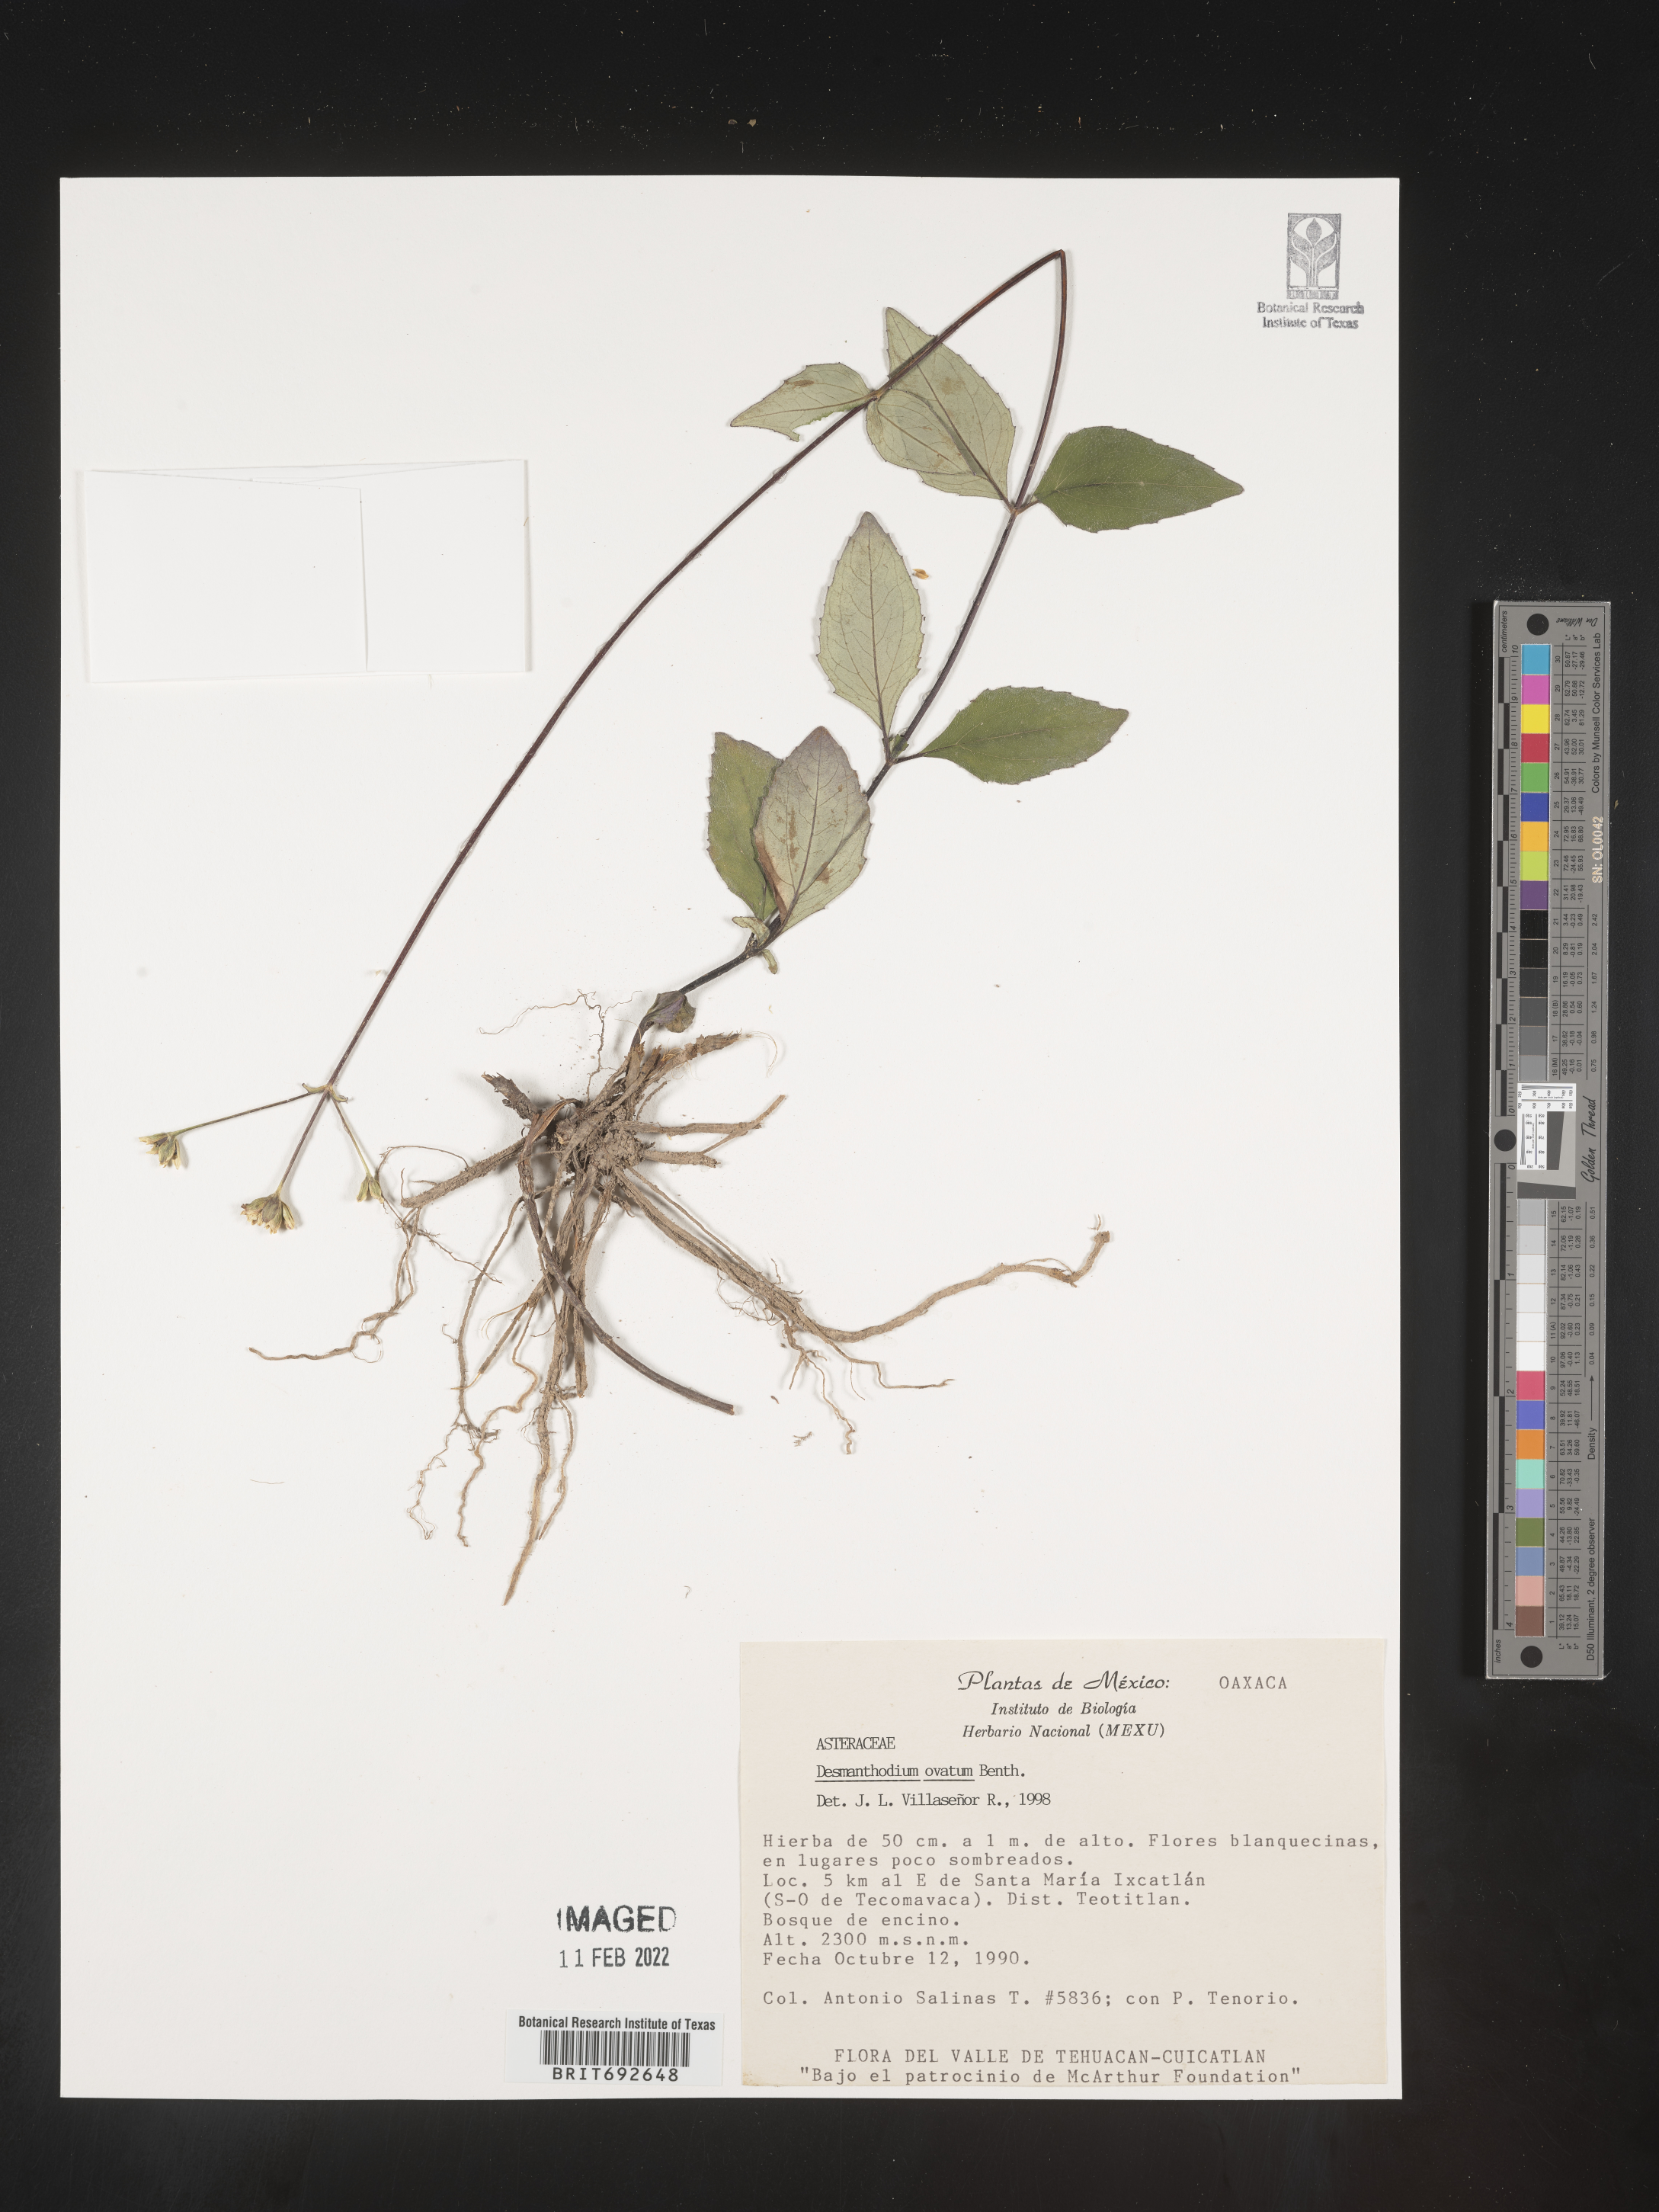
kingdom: Plantae
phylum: Tracheophyta
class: Magnoliopsida
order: Asterales
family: Asteraceae
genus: Desmanthodium
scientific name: Desmanthodium
